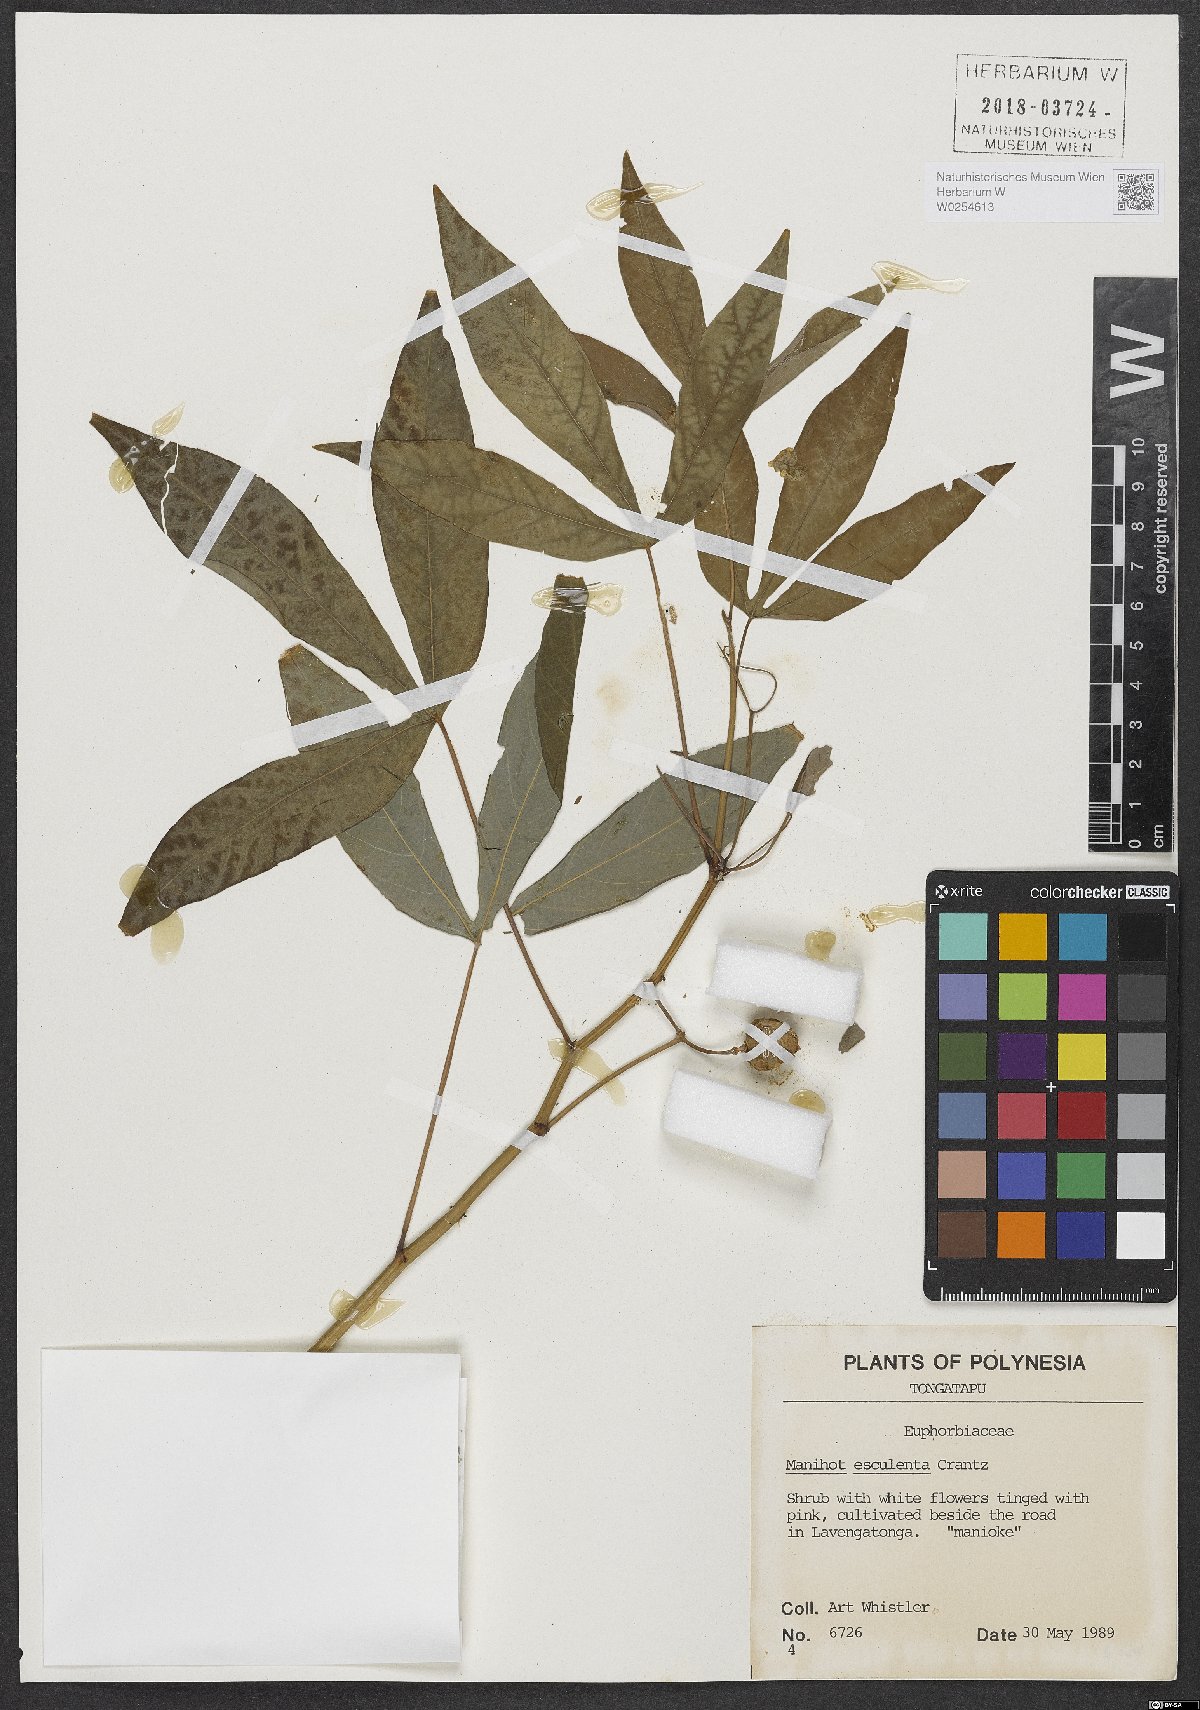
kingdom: Plantae
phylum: Tracheophyta
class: Magnoliopsida
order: Malpighiales
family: Euphorbiaceae
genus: Manihot
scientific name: Manihot esculenta
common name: Cassava
